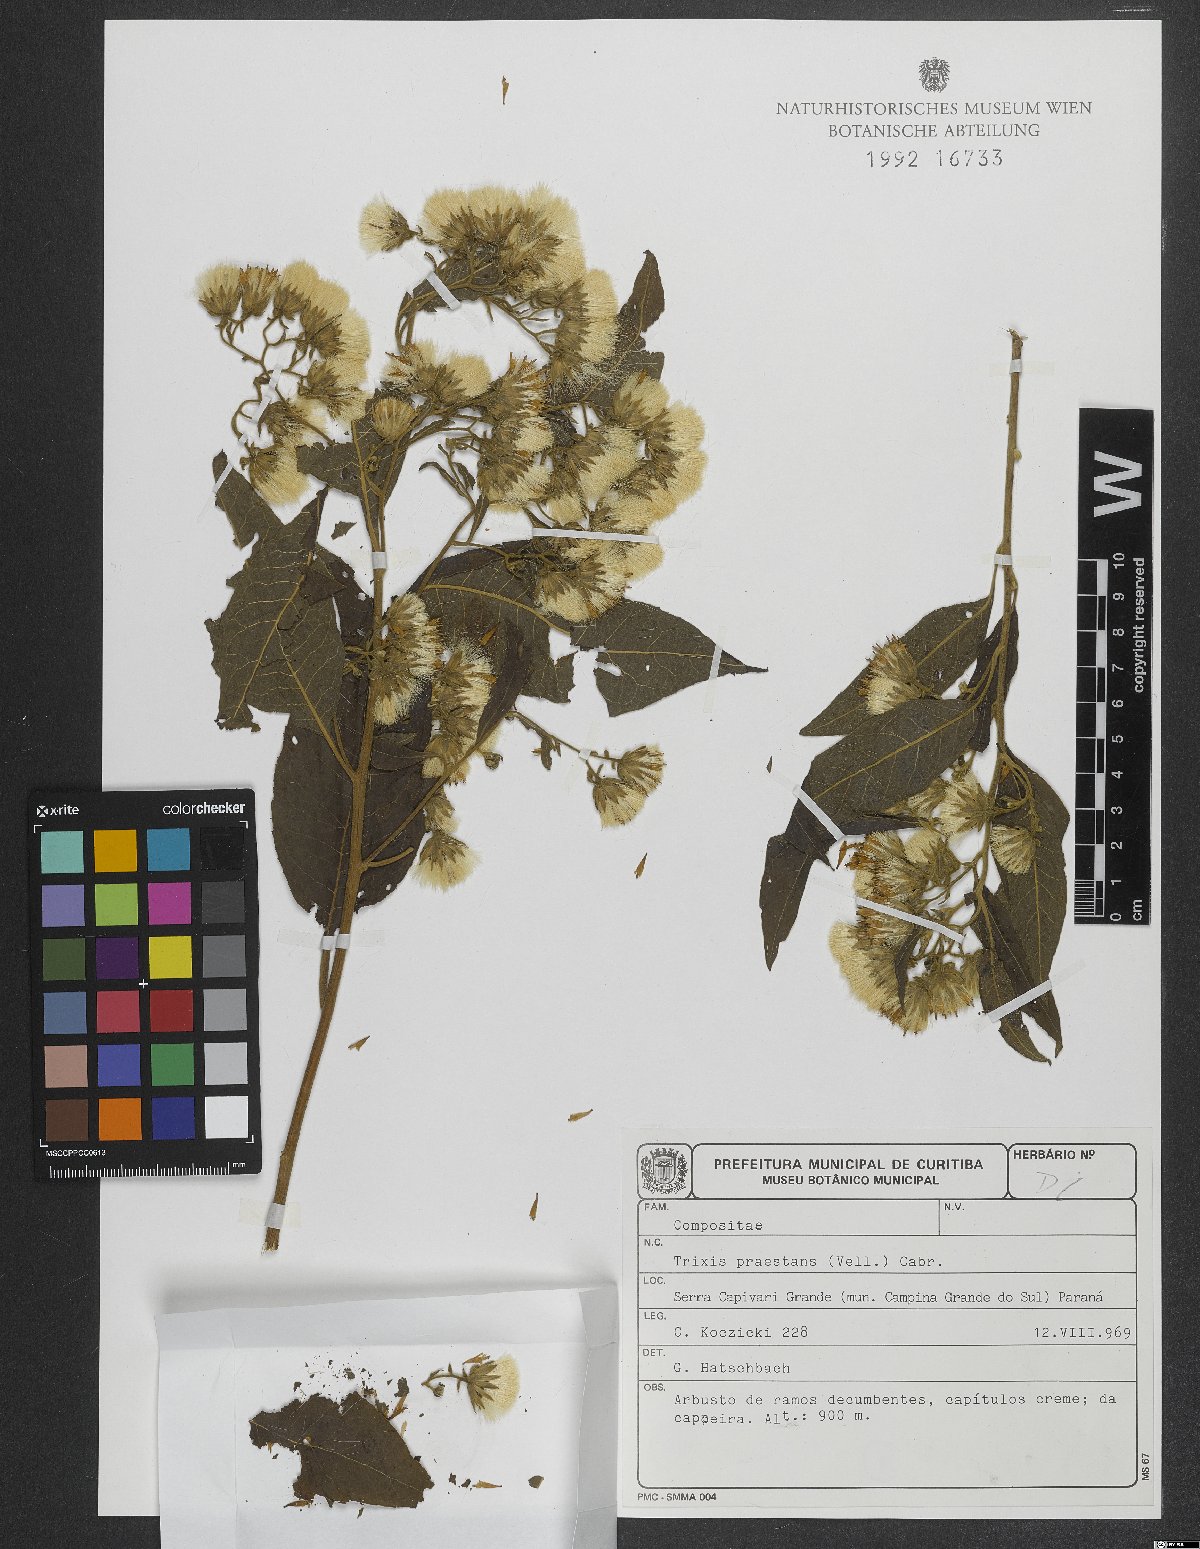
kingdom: Plantae
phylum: Tracheophyta
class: Magnoliopsida
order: Asterales
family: Asteraceae
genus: Trixis
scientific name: Trixis praestans
